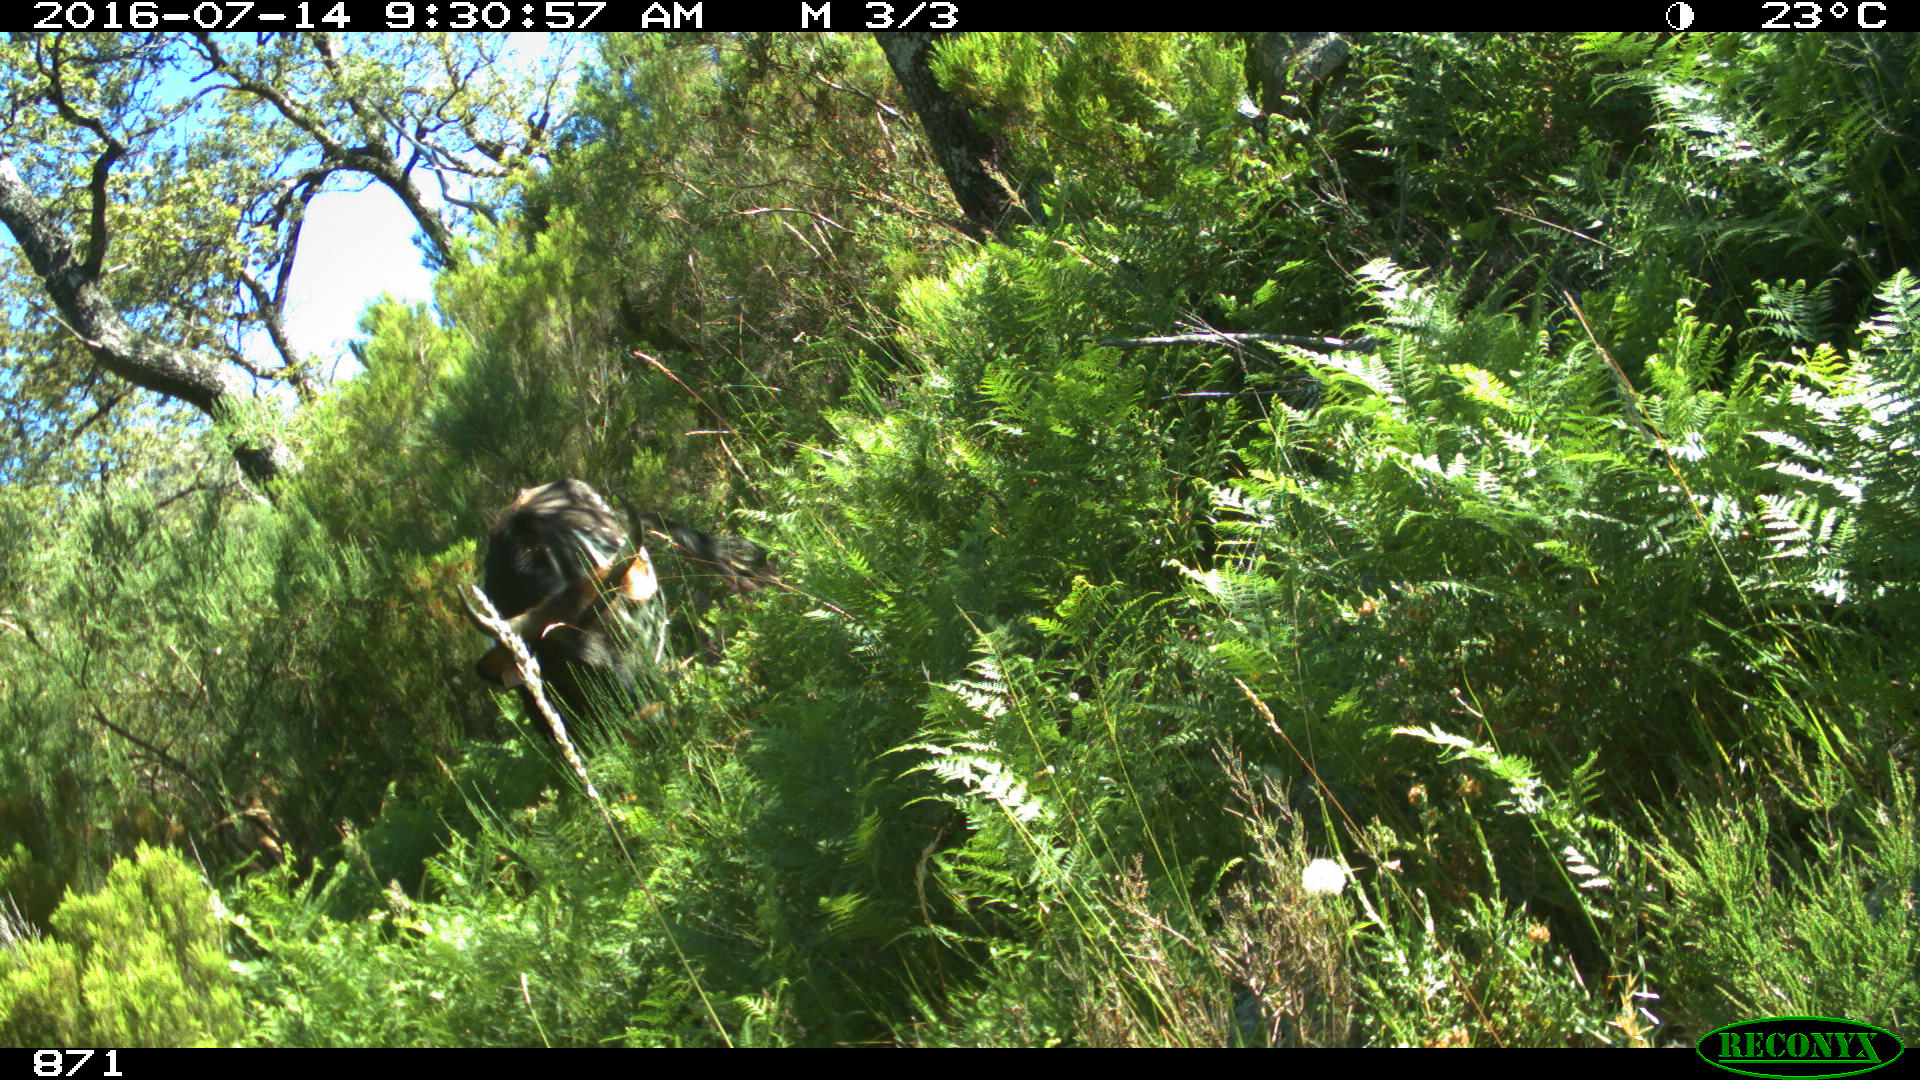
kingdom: Animalia
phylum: Chordata
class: Mammalia
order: Artiodactyla
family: Bovidae
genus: Bos
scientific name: Bos taurus
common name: Domesticated cattle
